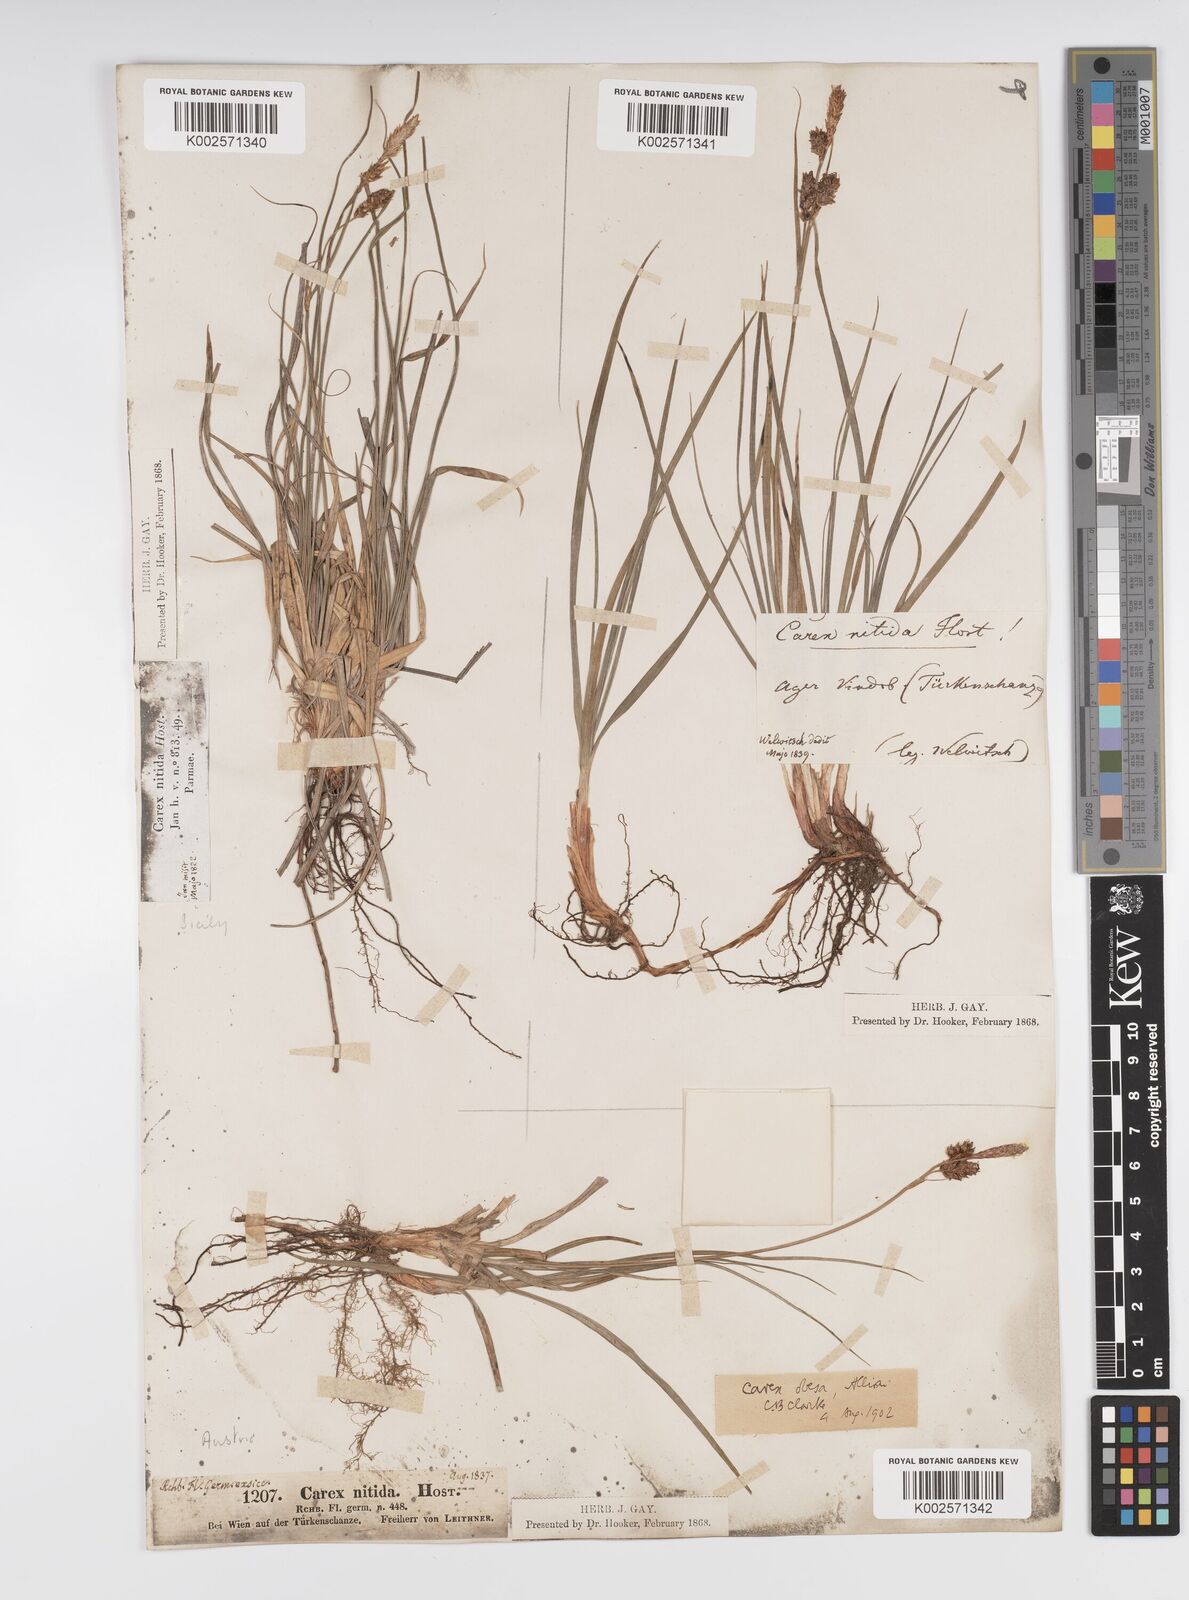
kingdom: Plantae
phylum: Tracheophyta
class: Liliopsida
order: Poales
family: Cyperaceae
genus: Carex
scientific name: Carex liparocarpos
